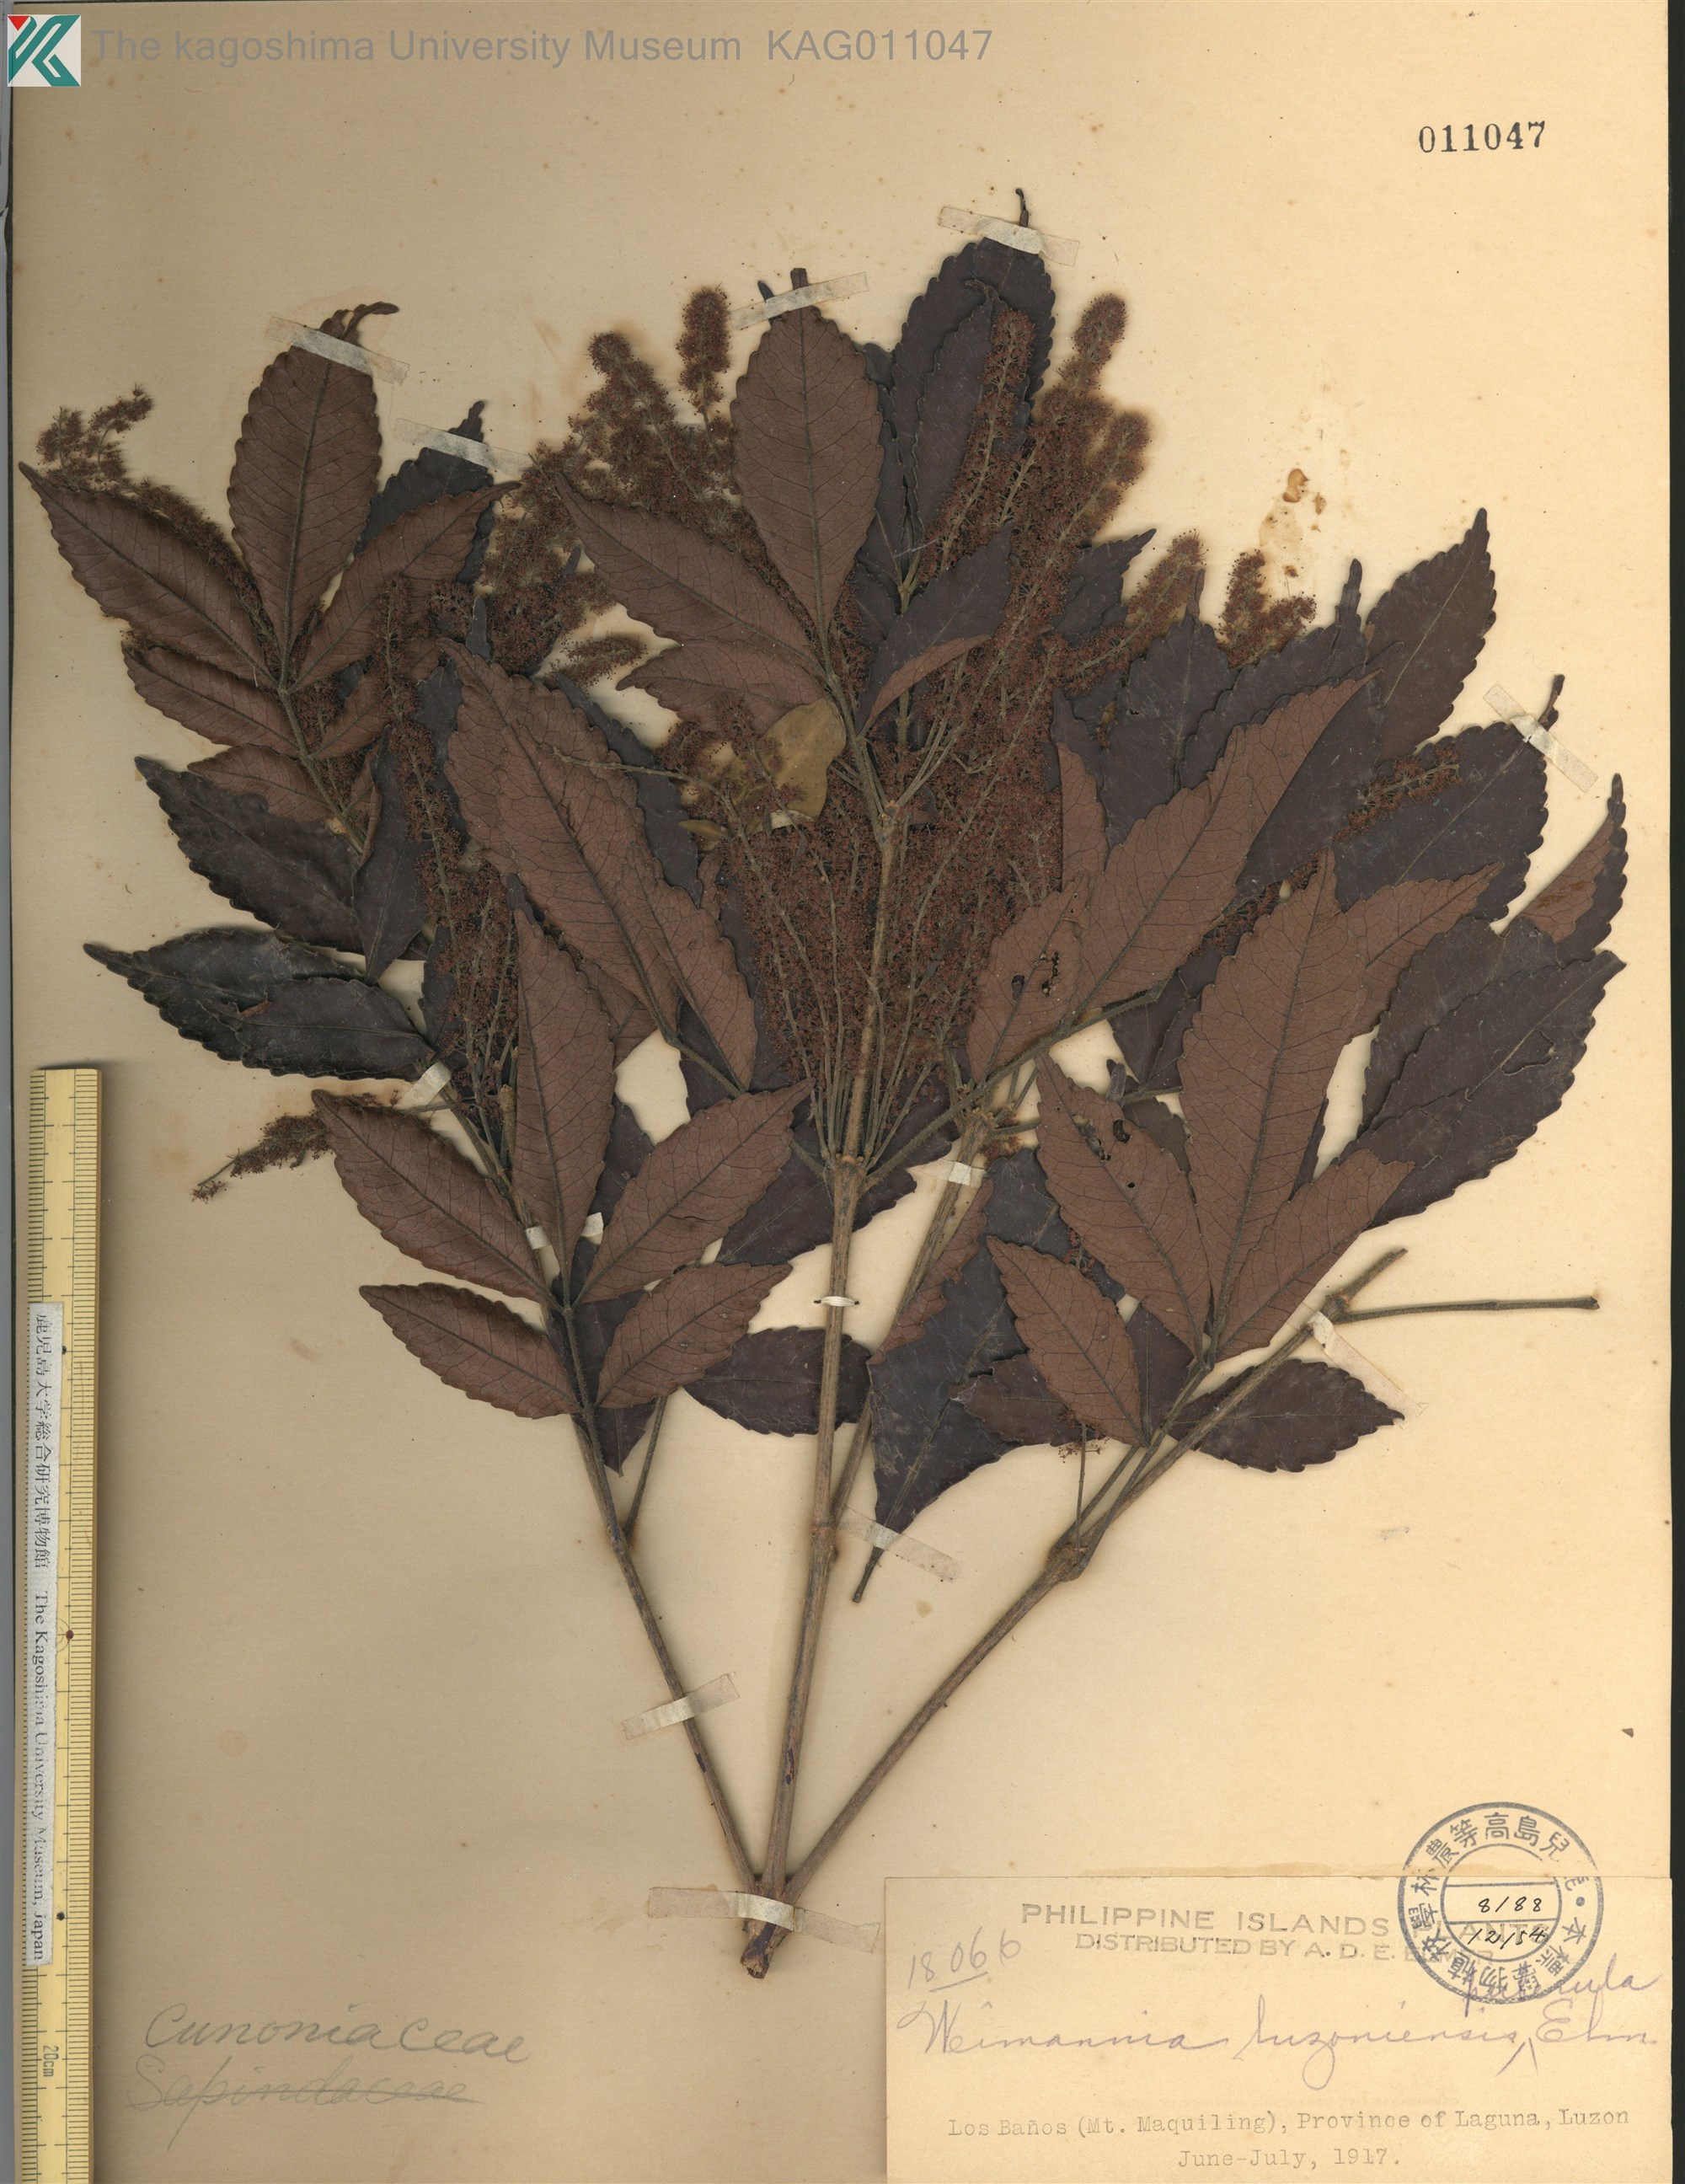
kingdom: Plantae
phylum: Tracheophyta
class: Magnoliopsida
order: Oxalidales
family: Cunoniaceae
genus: Weinmannia
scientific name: Weinmannia
